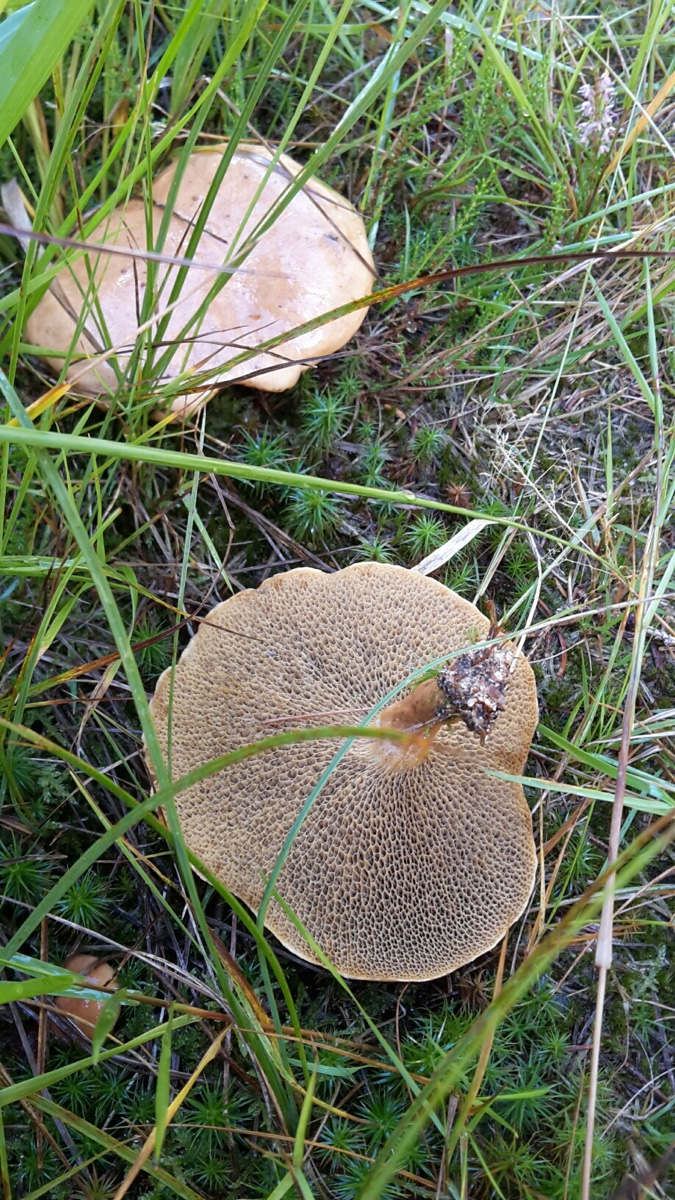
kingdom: Fungi
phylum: Basidiomycota
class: Agaricomycetes
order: Boletales
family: Suillaceae
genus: Suillus
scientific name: Suillus bovinus
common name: grovporet slimrørhat
